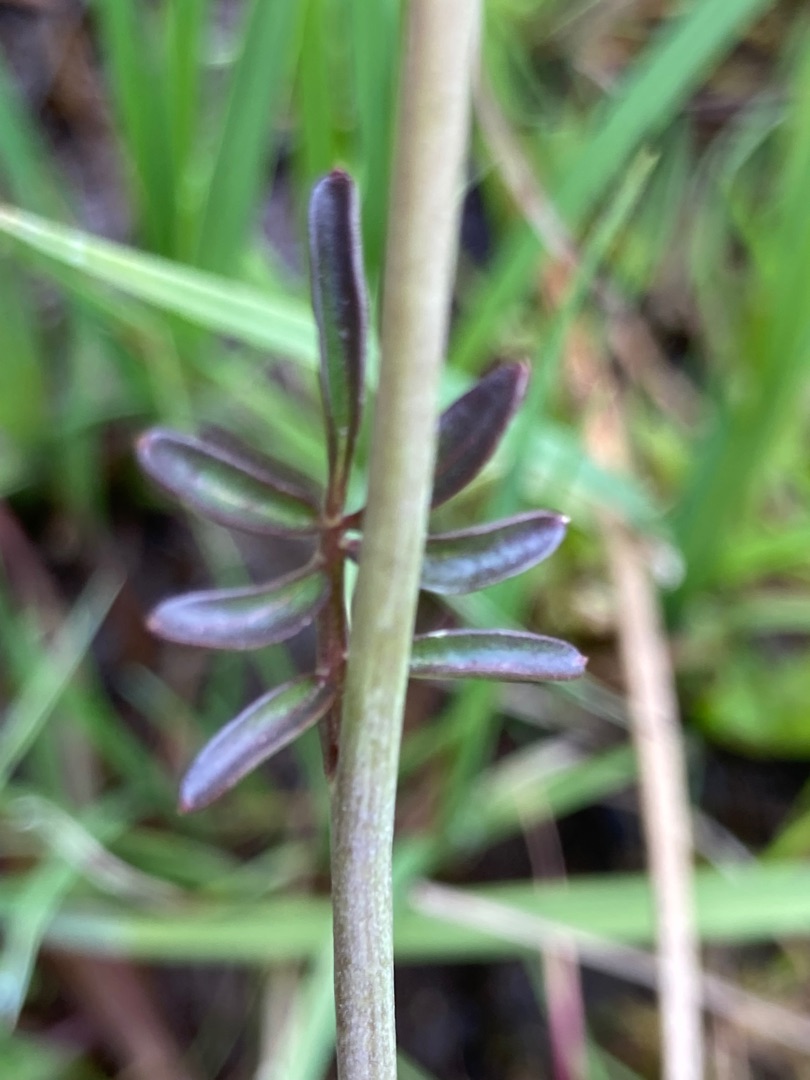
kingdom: Plantae
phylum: Tracheophyta
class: Magnoliopsida
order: Brassicales
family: Brassicaceae
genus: Cardamine
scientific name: Cardamine pratensis
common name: Engkarse
